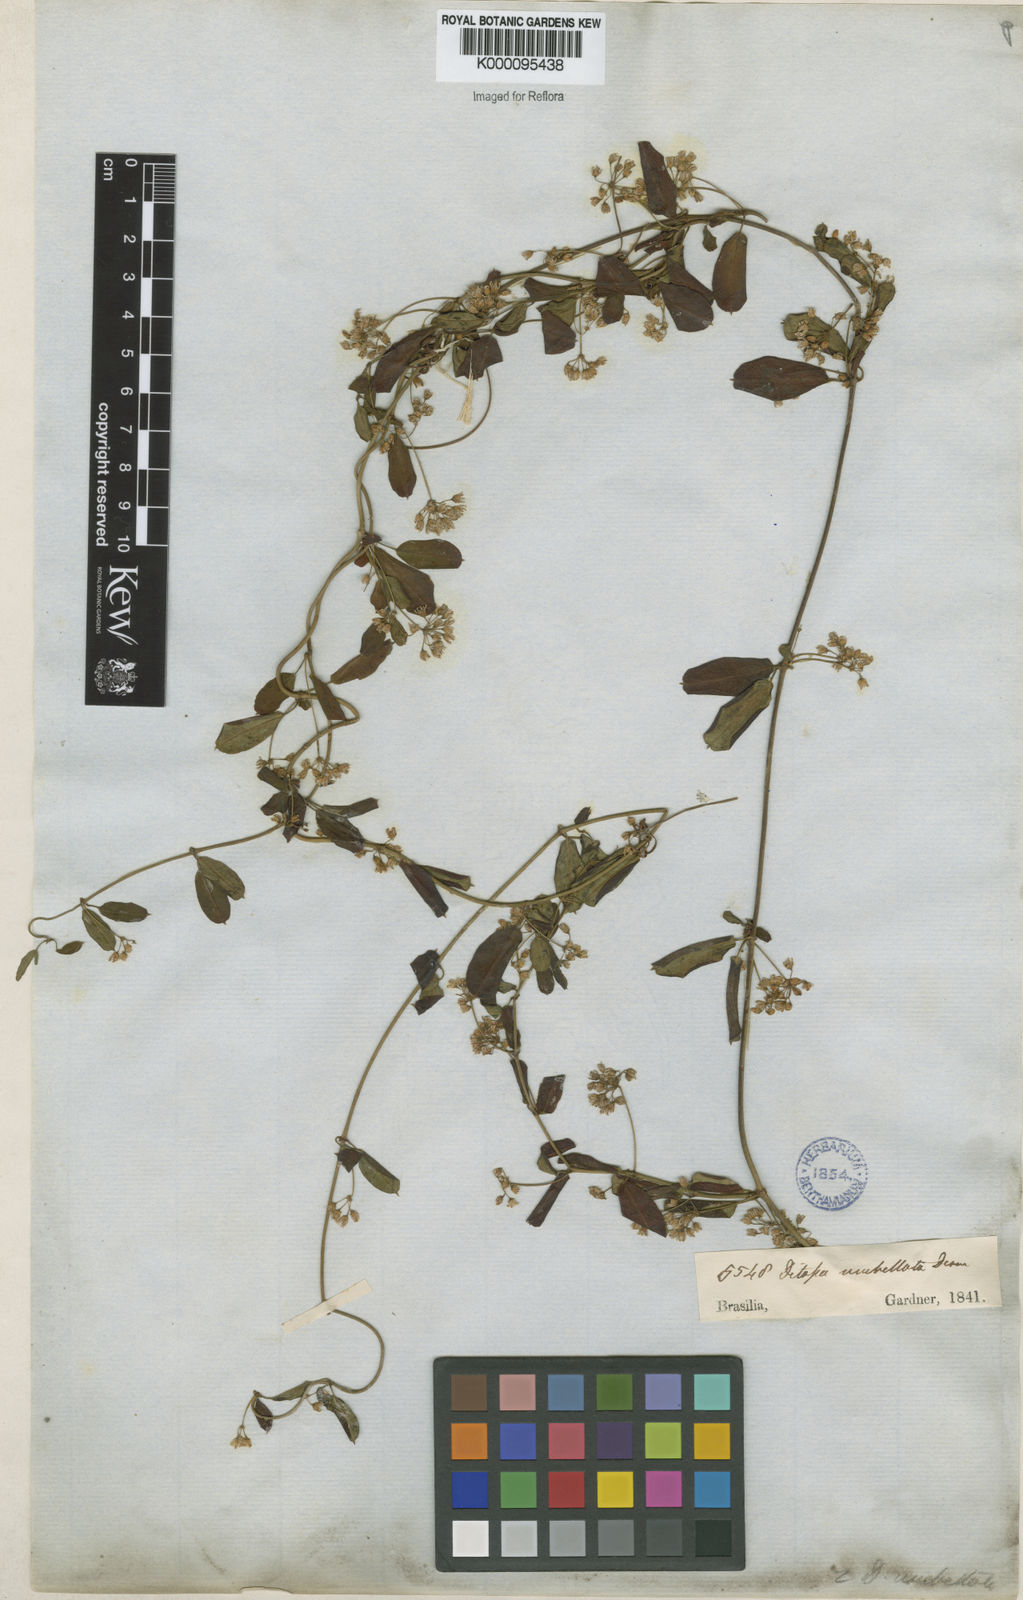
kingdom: Plantae
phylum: Tracheophyta
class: Magnoliopsida
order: Gentianales
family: Apocynaceae
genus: Ditassa
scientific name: Ditassa banksii
